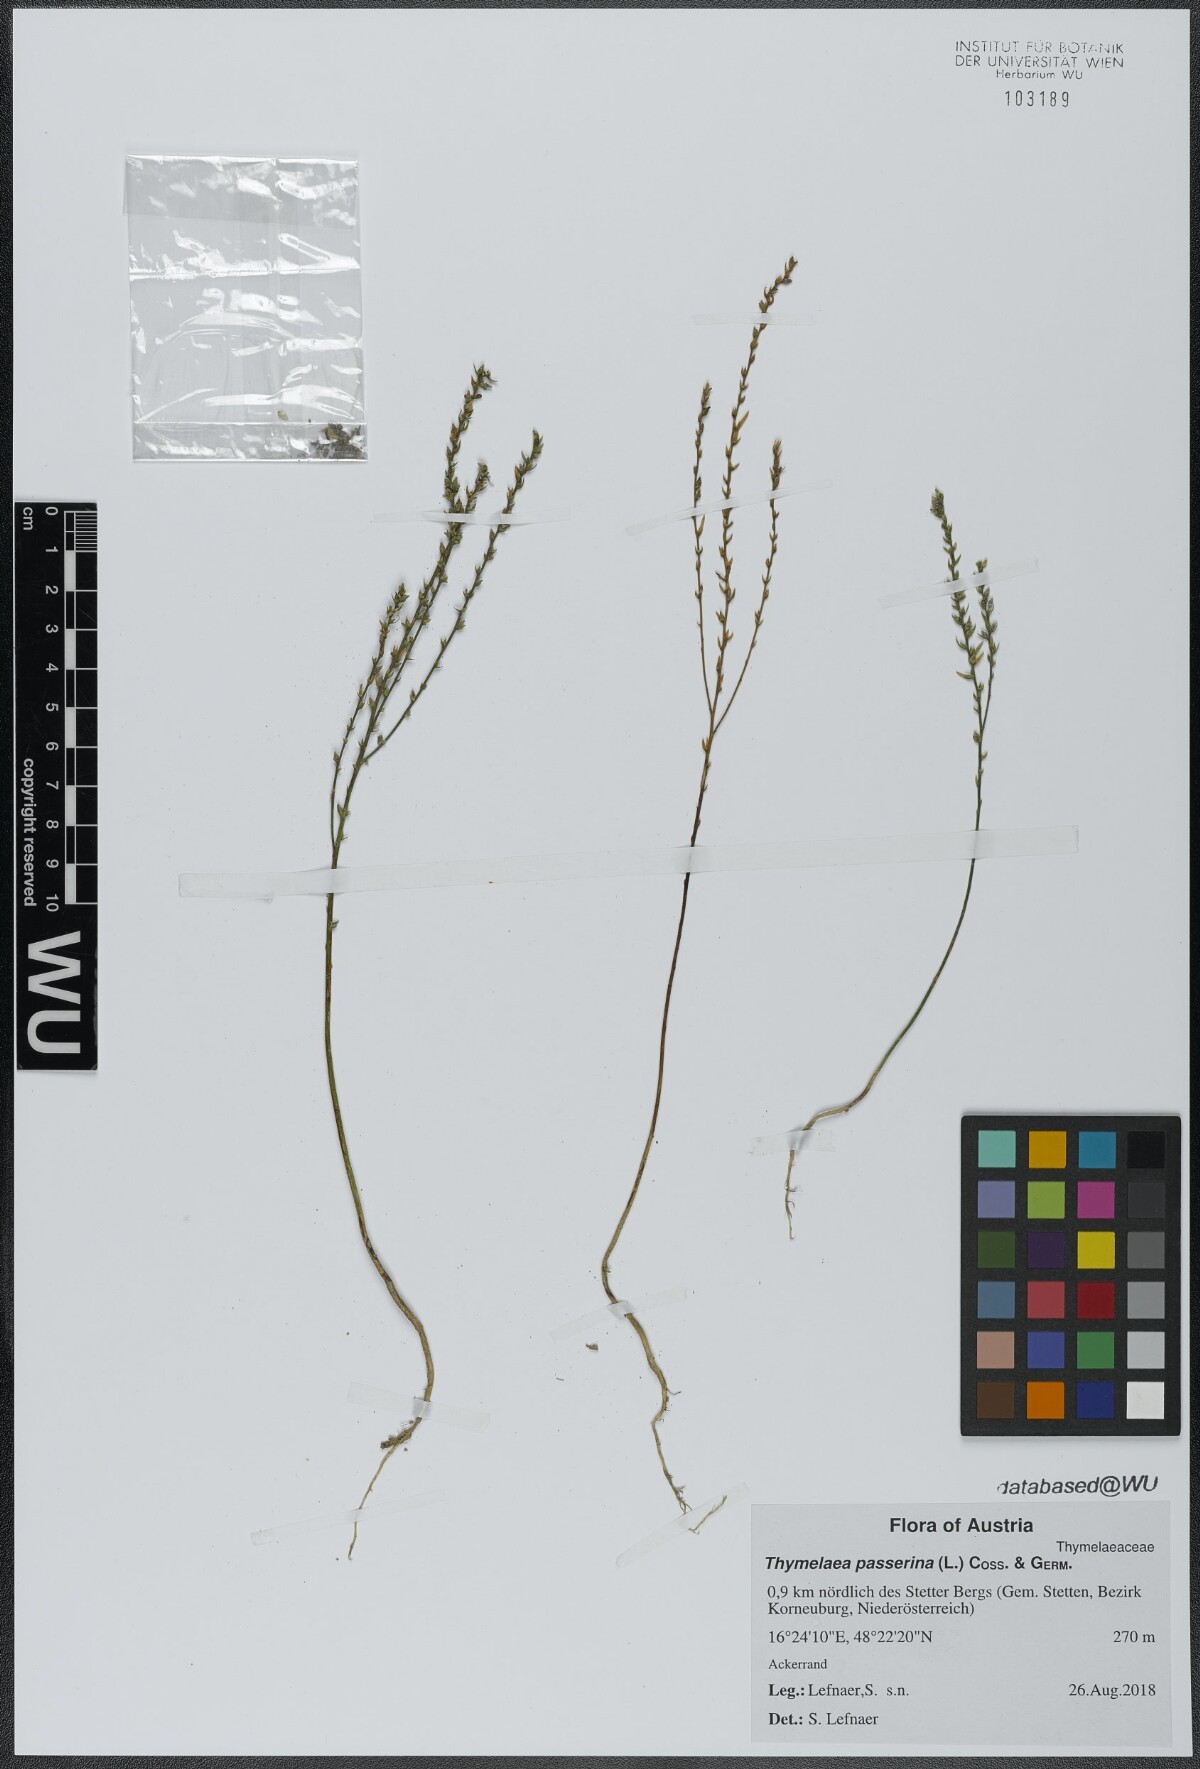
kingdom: Plantae
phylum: Tracheophyta
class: Magnoliopsida
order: Malvales
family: Thymelaeaceae
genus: Thymelaea
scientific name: Thymelaea passerina
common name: Annual thymelaea
